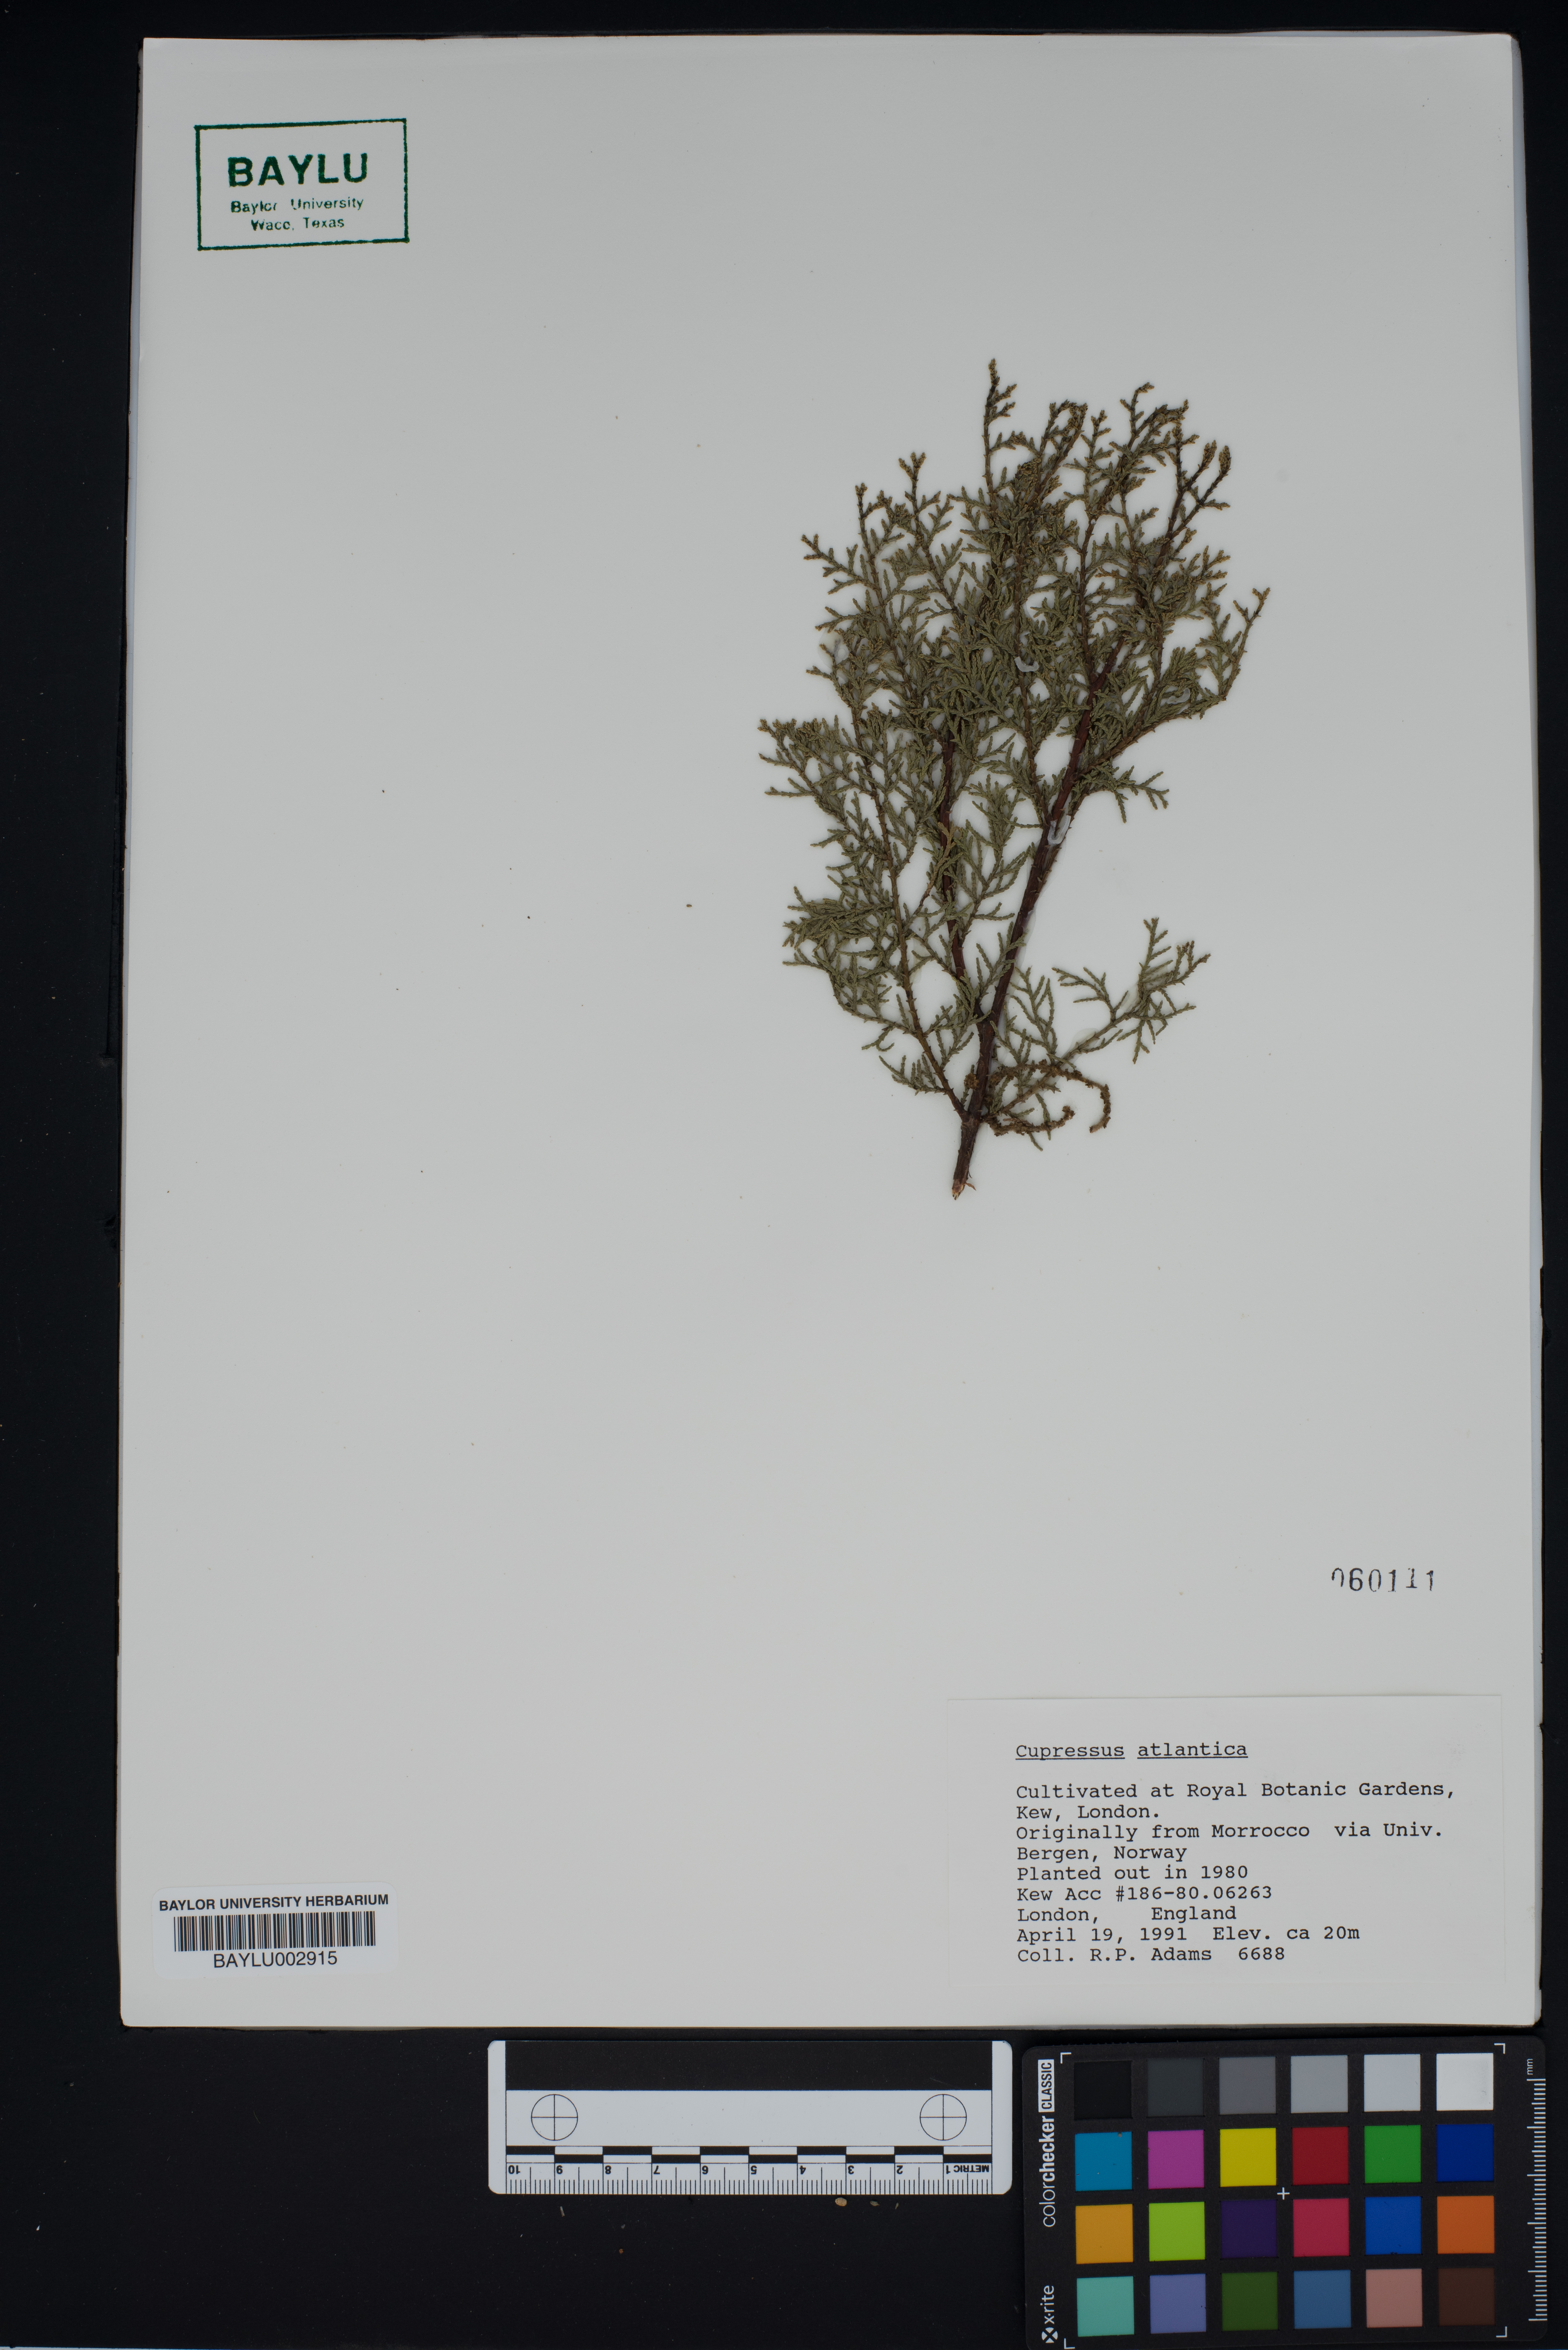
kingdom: Plantae
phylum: Tracheophyta
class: Pinopsida
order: Pinales
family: Cupressaceae
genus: Cupressus
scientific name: Cupressus dupreziana
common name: Moroccan cypress
